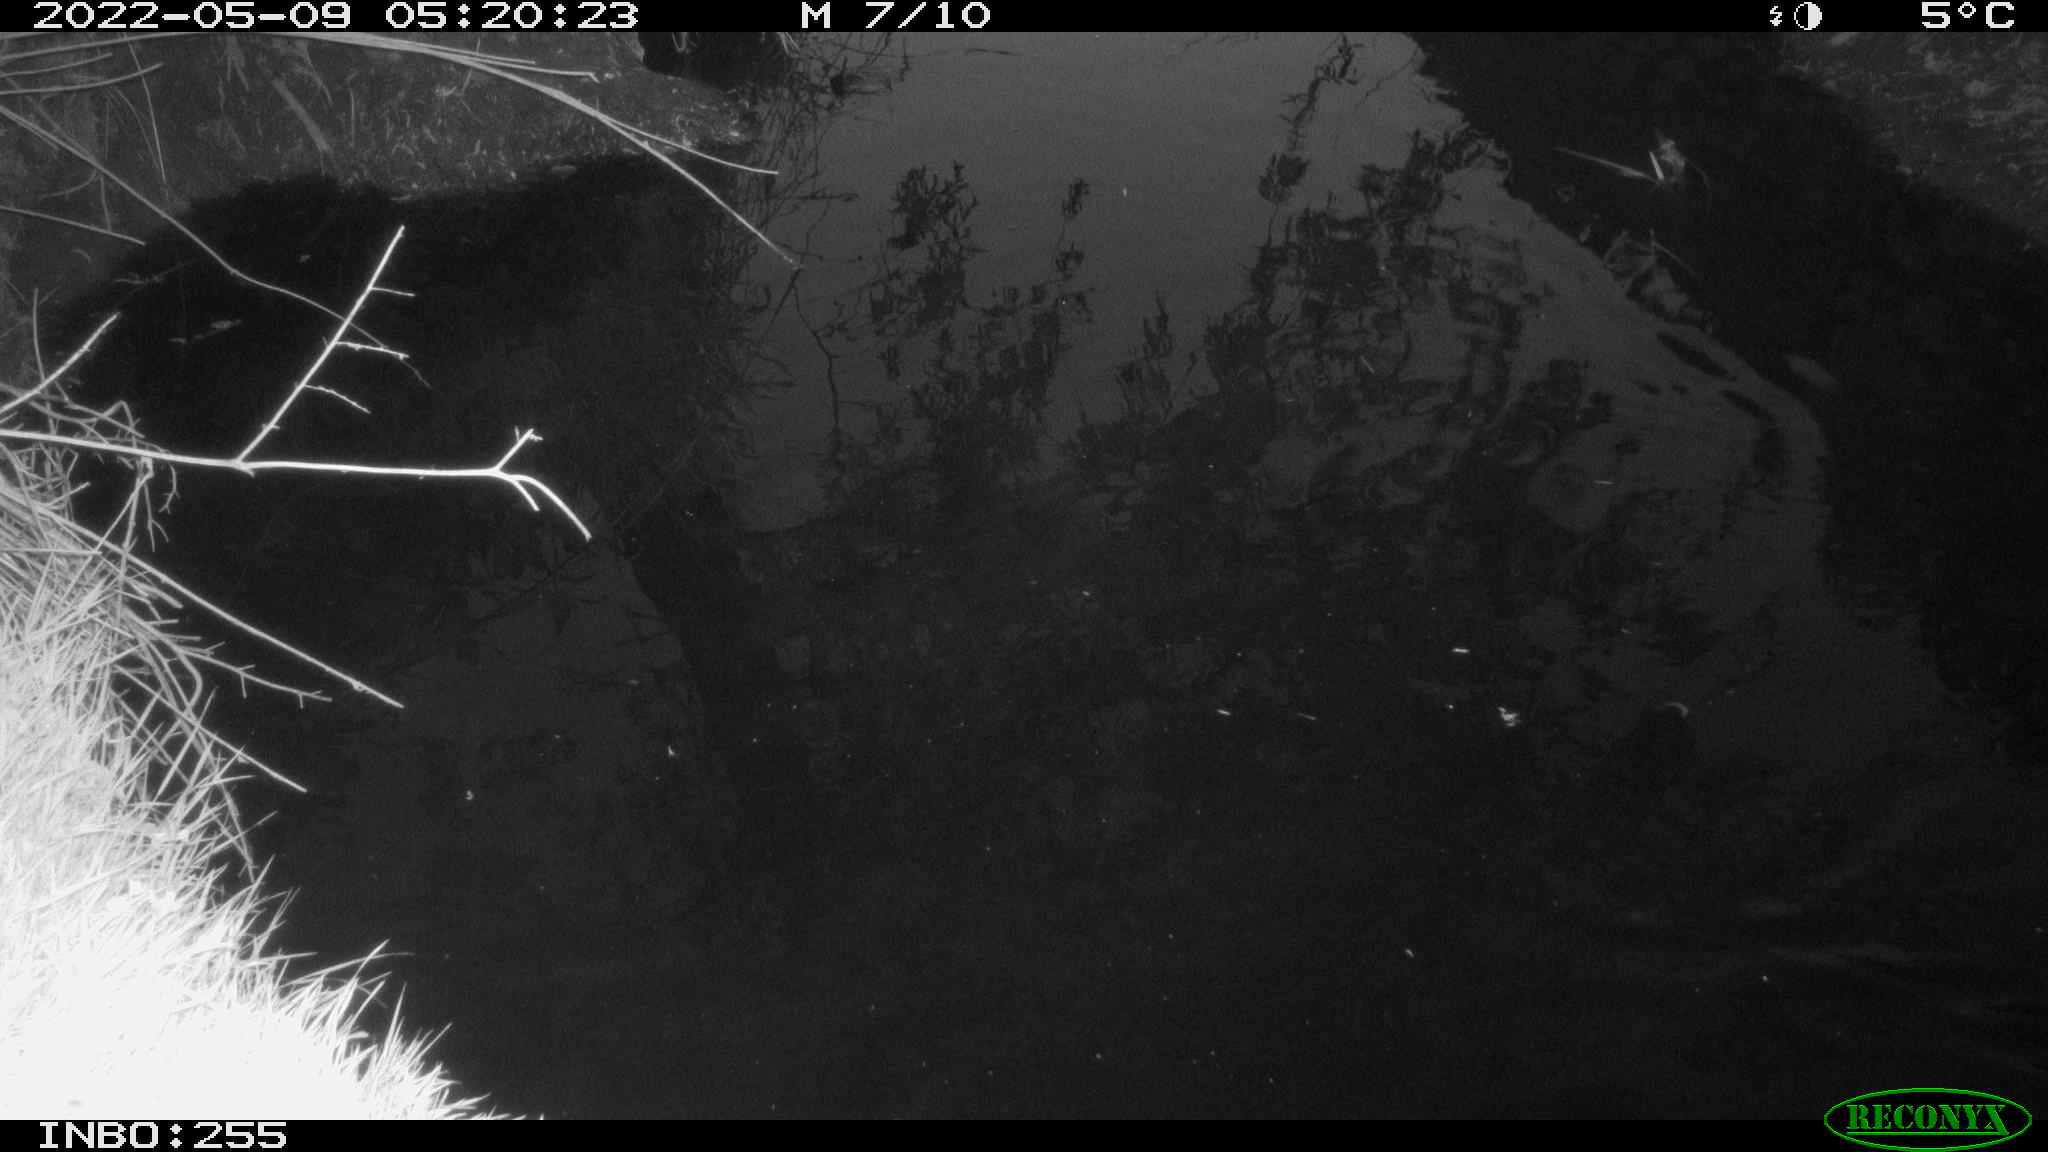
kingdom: Animalia
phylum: Chordata
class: Aves
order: Gruiformes
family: Rallidae
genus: Gallinula
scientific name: Gallinula chloropus
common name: Common moorhen
